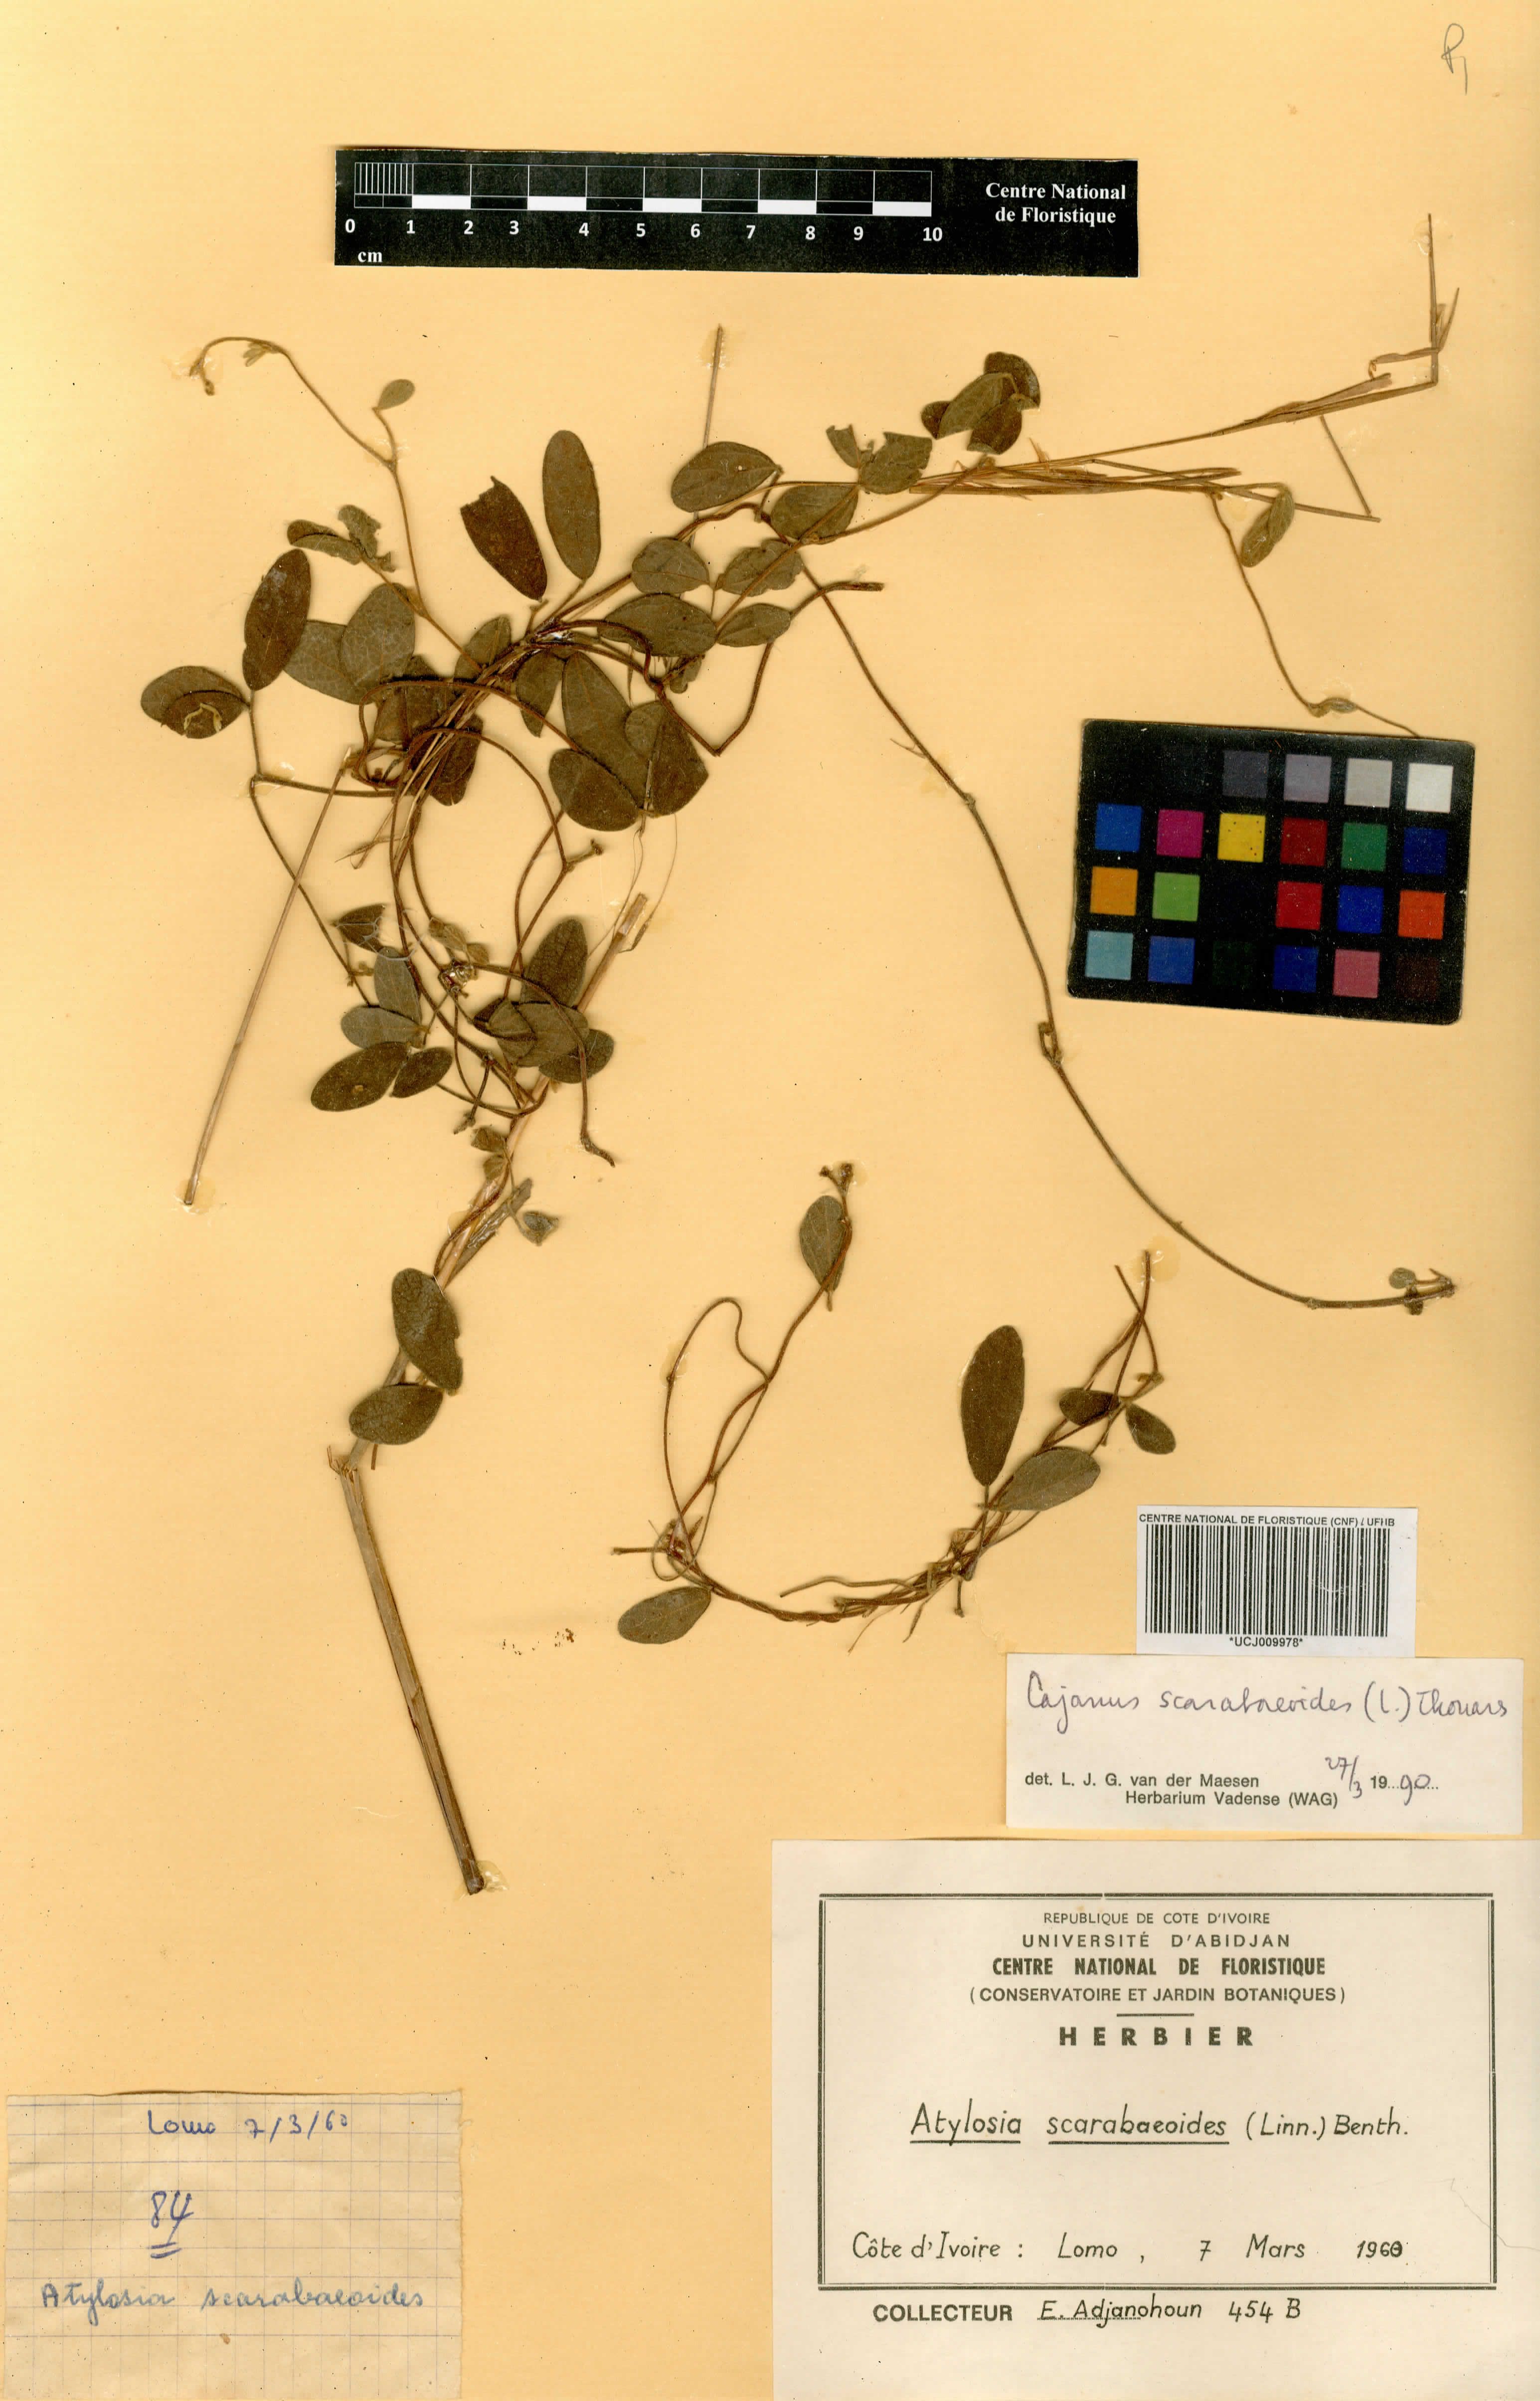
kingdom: Plantae
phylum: Tracheophyta
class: Magnoliopsida
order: Fabales
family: Fabaceae
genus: Cajanus
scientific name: Cajanus scarabaeoides
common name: Showy pigeonpea
